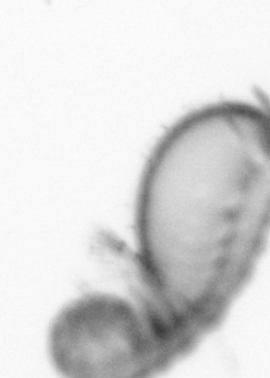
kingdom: Animalia
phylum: Annelida
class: Polychaeta
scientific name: Polychaeta
